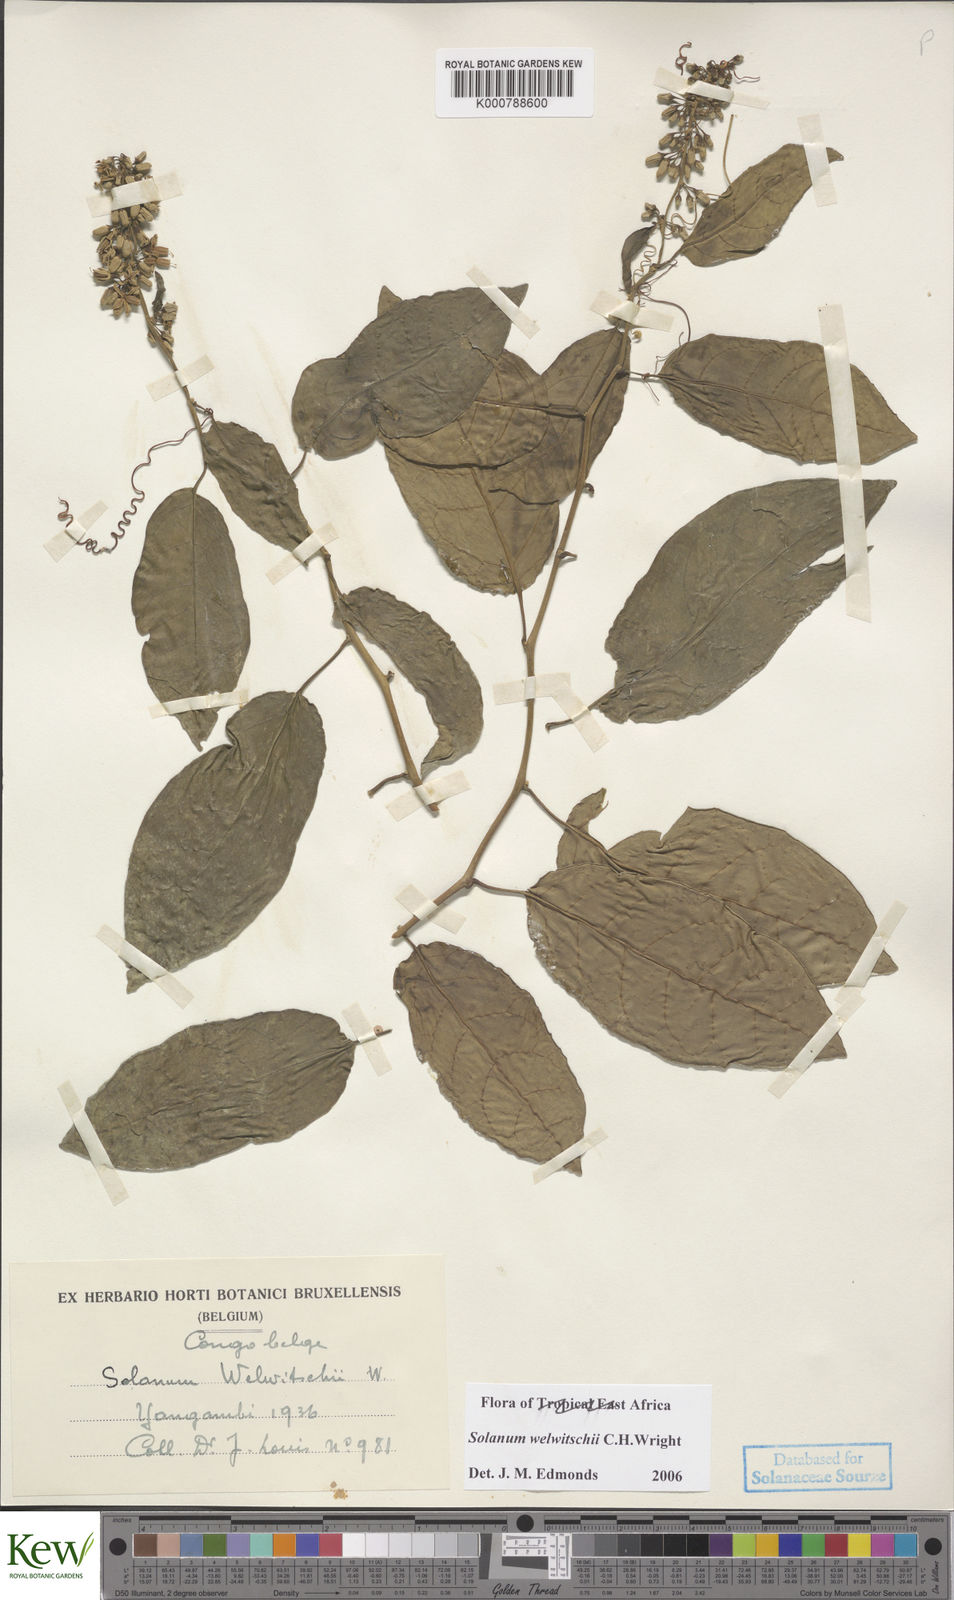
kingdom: Plantae
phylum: Tracheophyta
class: Magnoliopsida
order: Solanales
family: Solanaceae
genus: Solanum
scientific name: Solanum terminale
